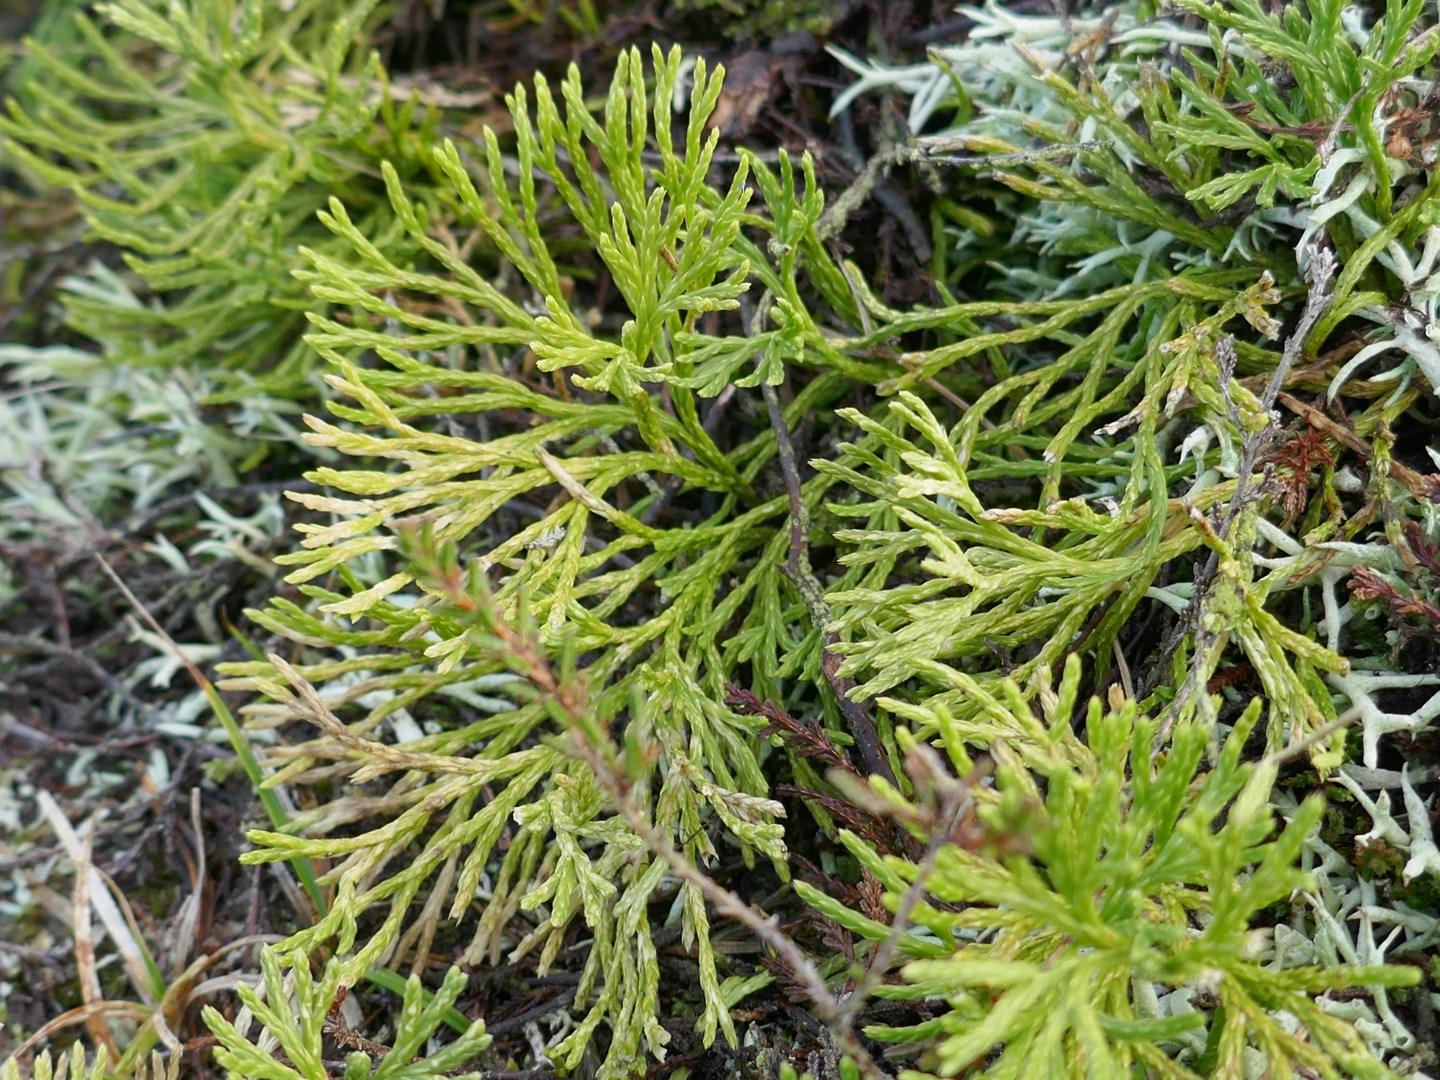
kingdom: Plantae
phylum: Tracheophyta
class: Lycopodiopsida
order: Lycopodiales
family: Lycopodiaceae
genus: Diphasiastrum
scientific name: Diphasiastrum tristachyum
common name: Cypres-ulvefod
